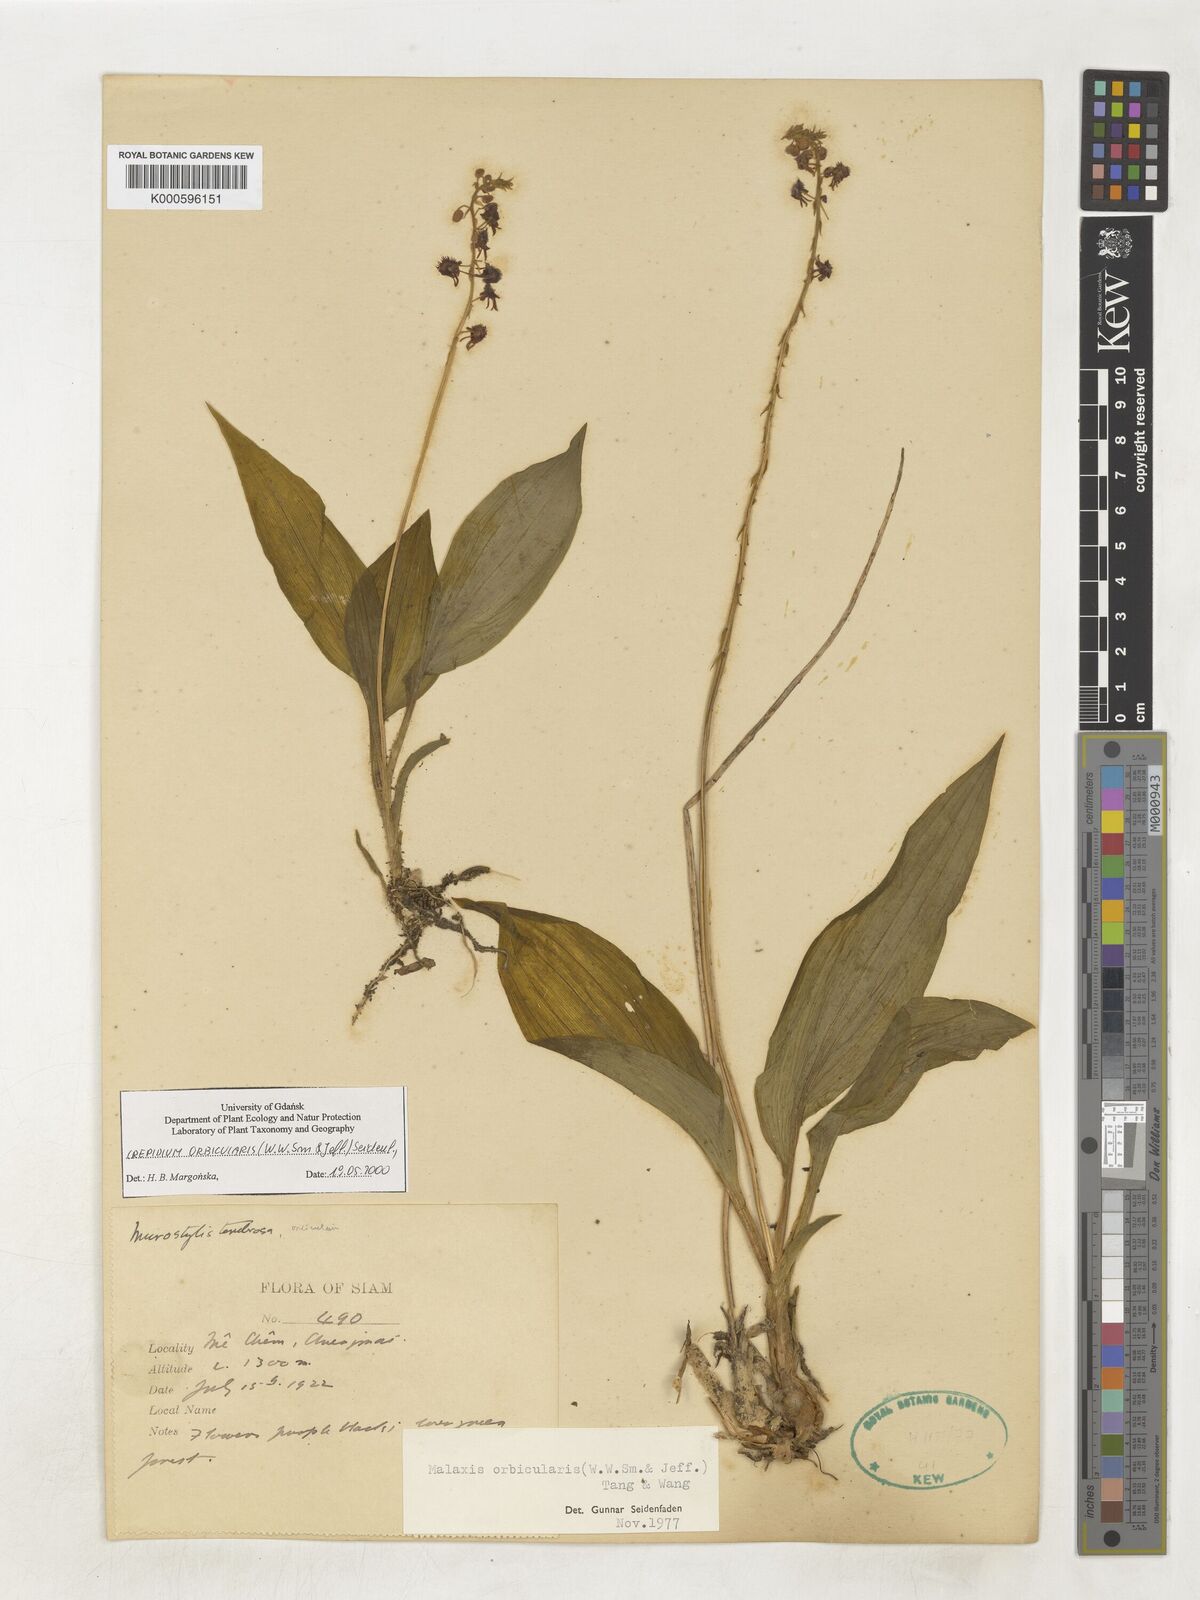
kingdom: Plantae
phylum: Tracheophyta
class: Liliopsida
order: Asparagales
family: Orchidaceae
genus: Crepidium
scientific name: Crepidium orbiculare
